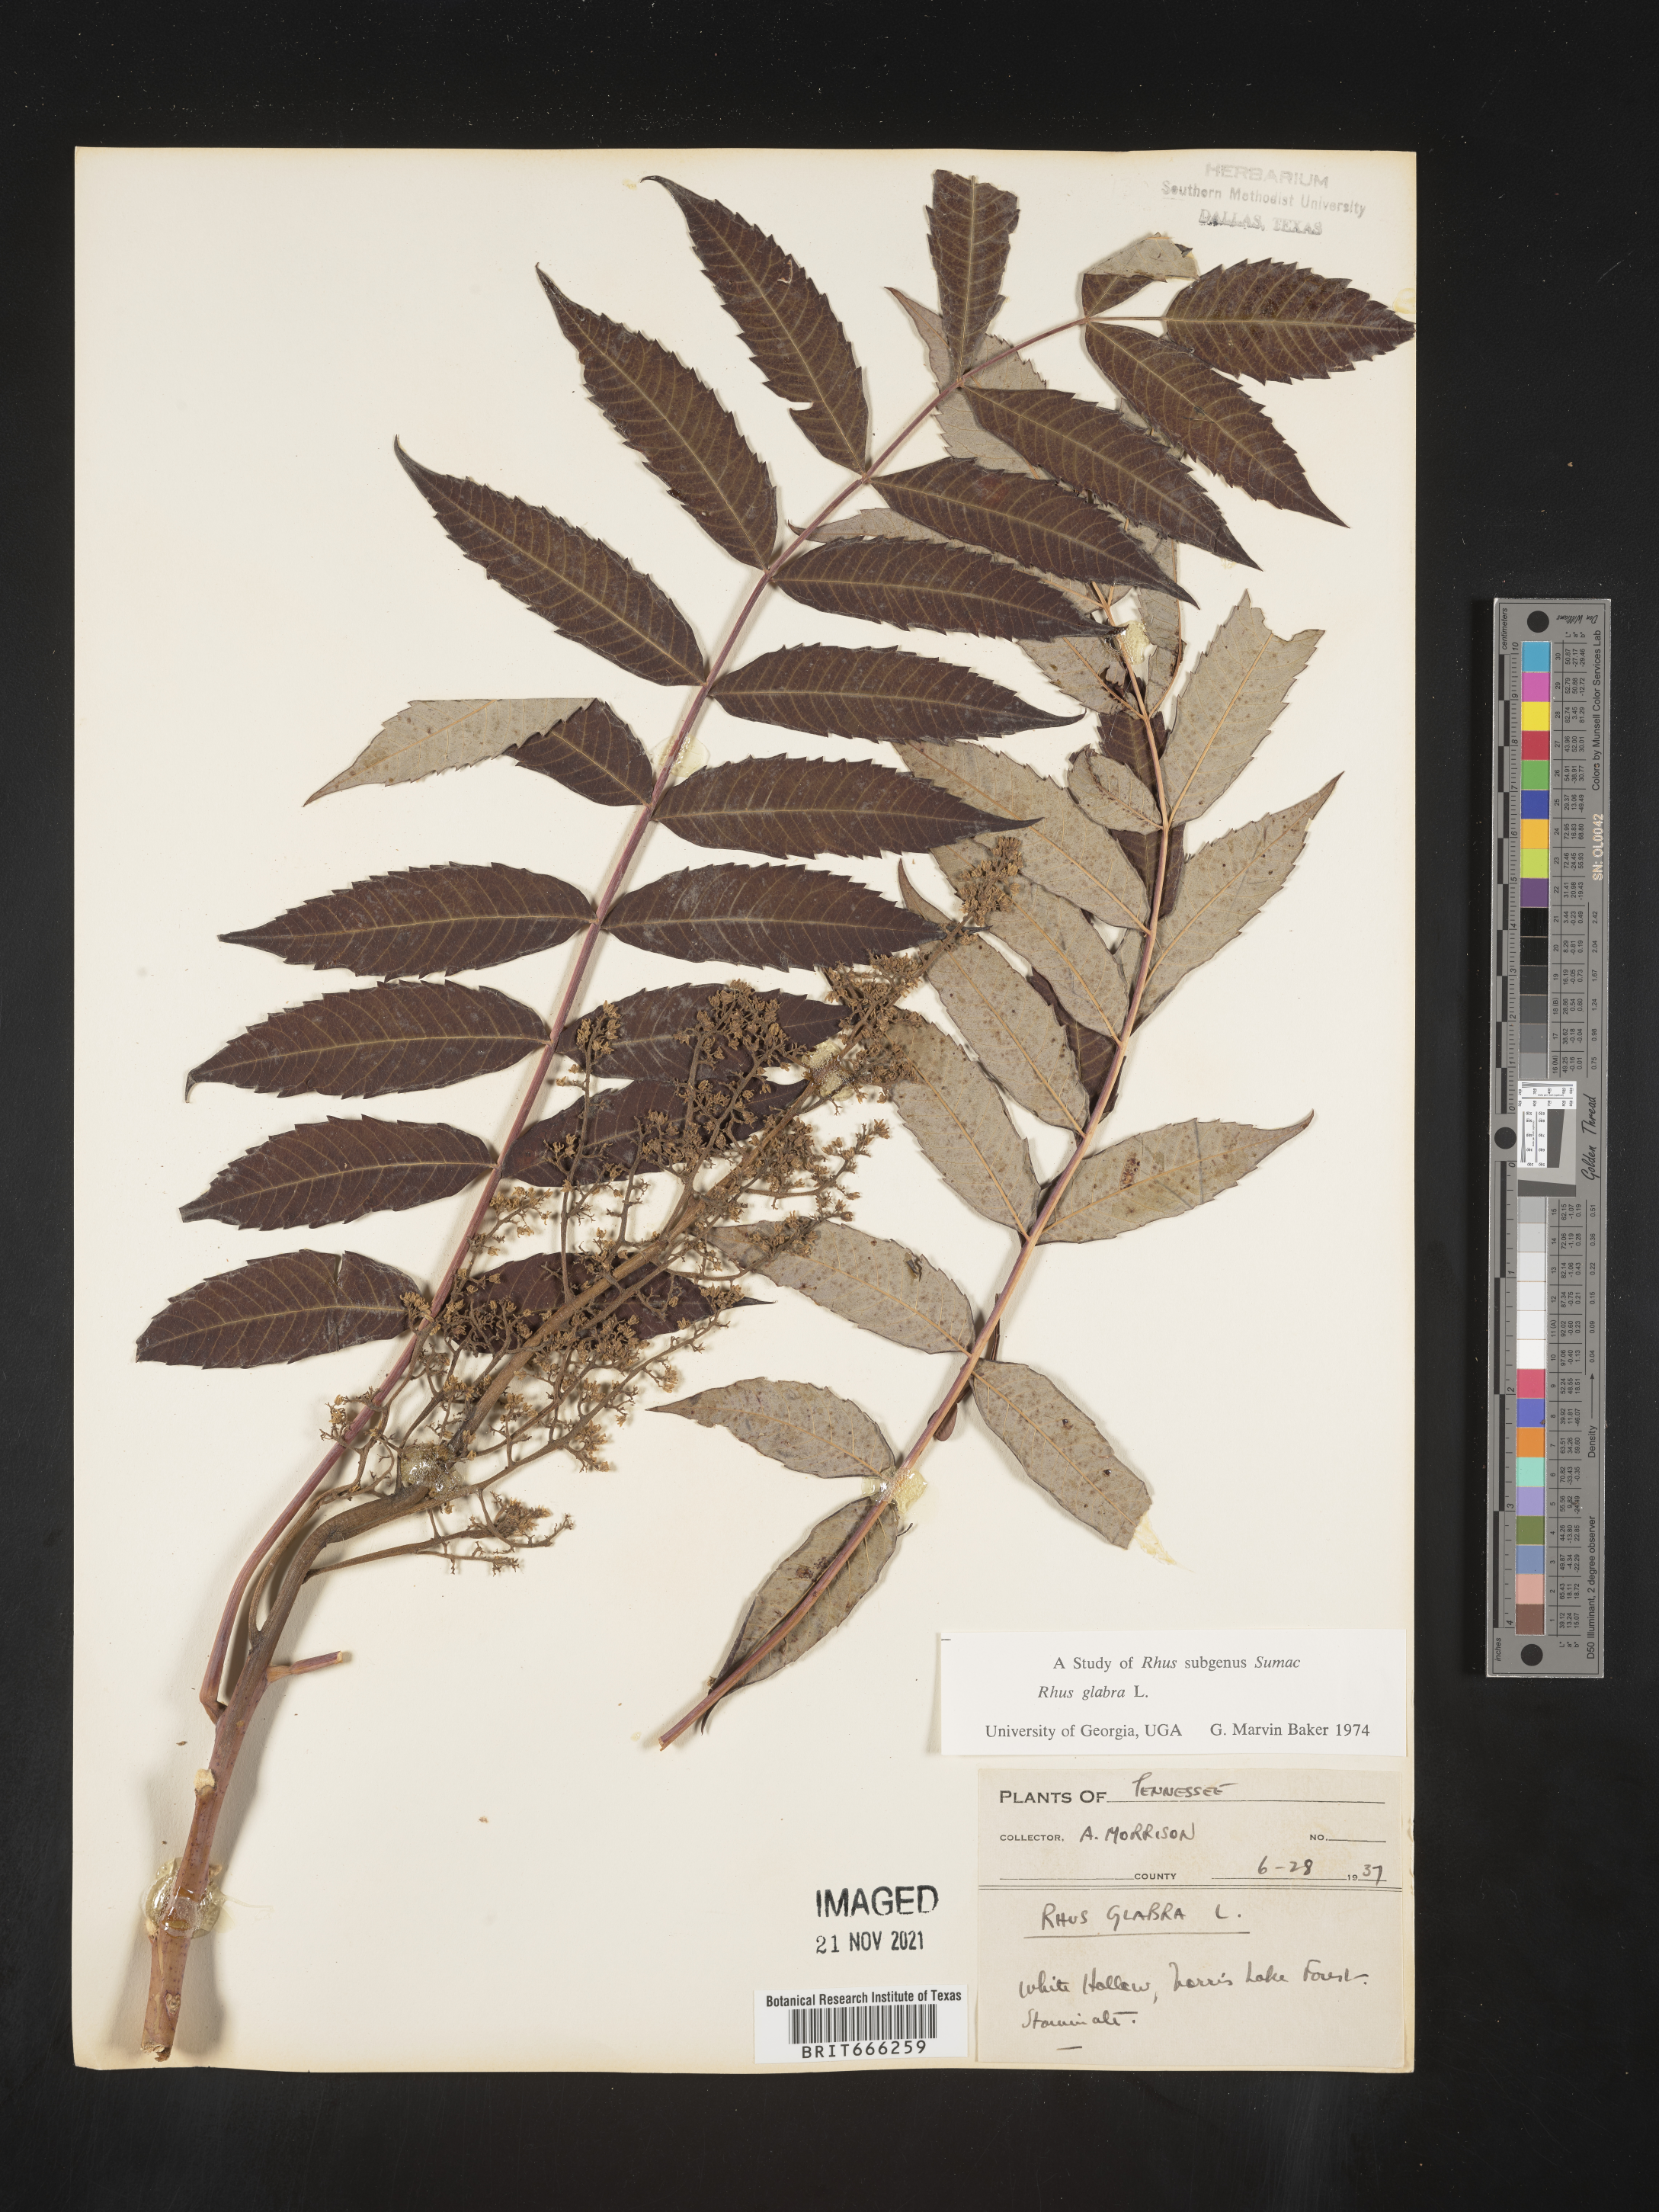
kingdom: Plantae
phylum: Tracheophyta
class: Magnoliopsida
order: Sapindales
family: Anacardiaceae
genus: Rhus
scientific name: Rhus glabra
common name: Scarlet sumac
